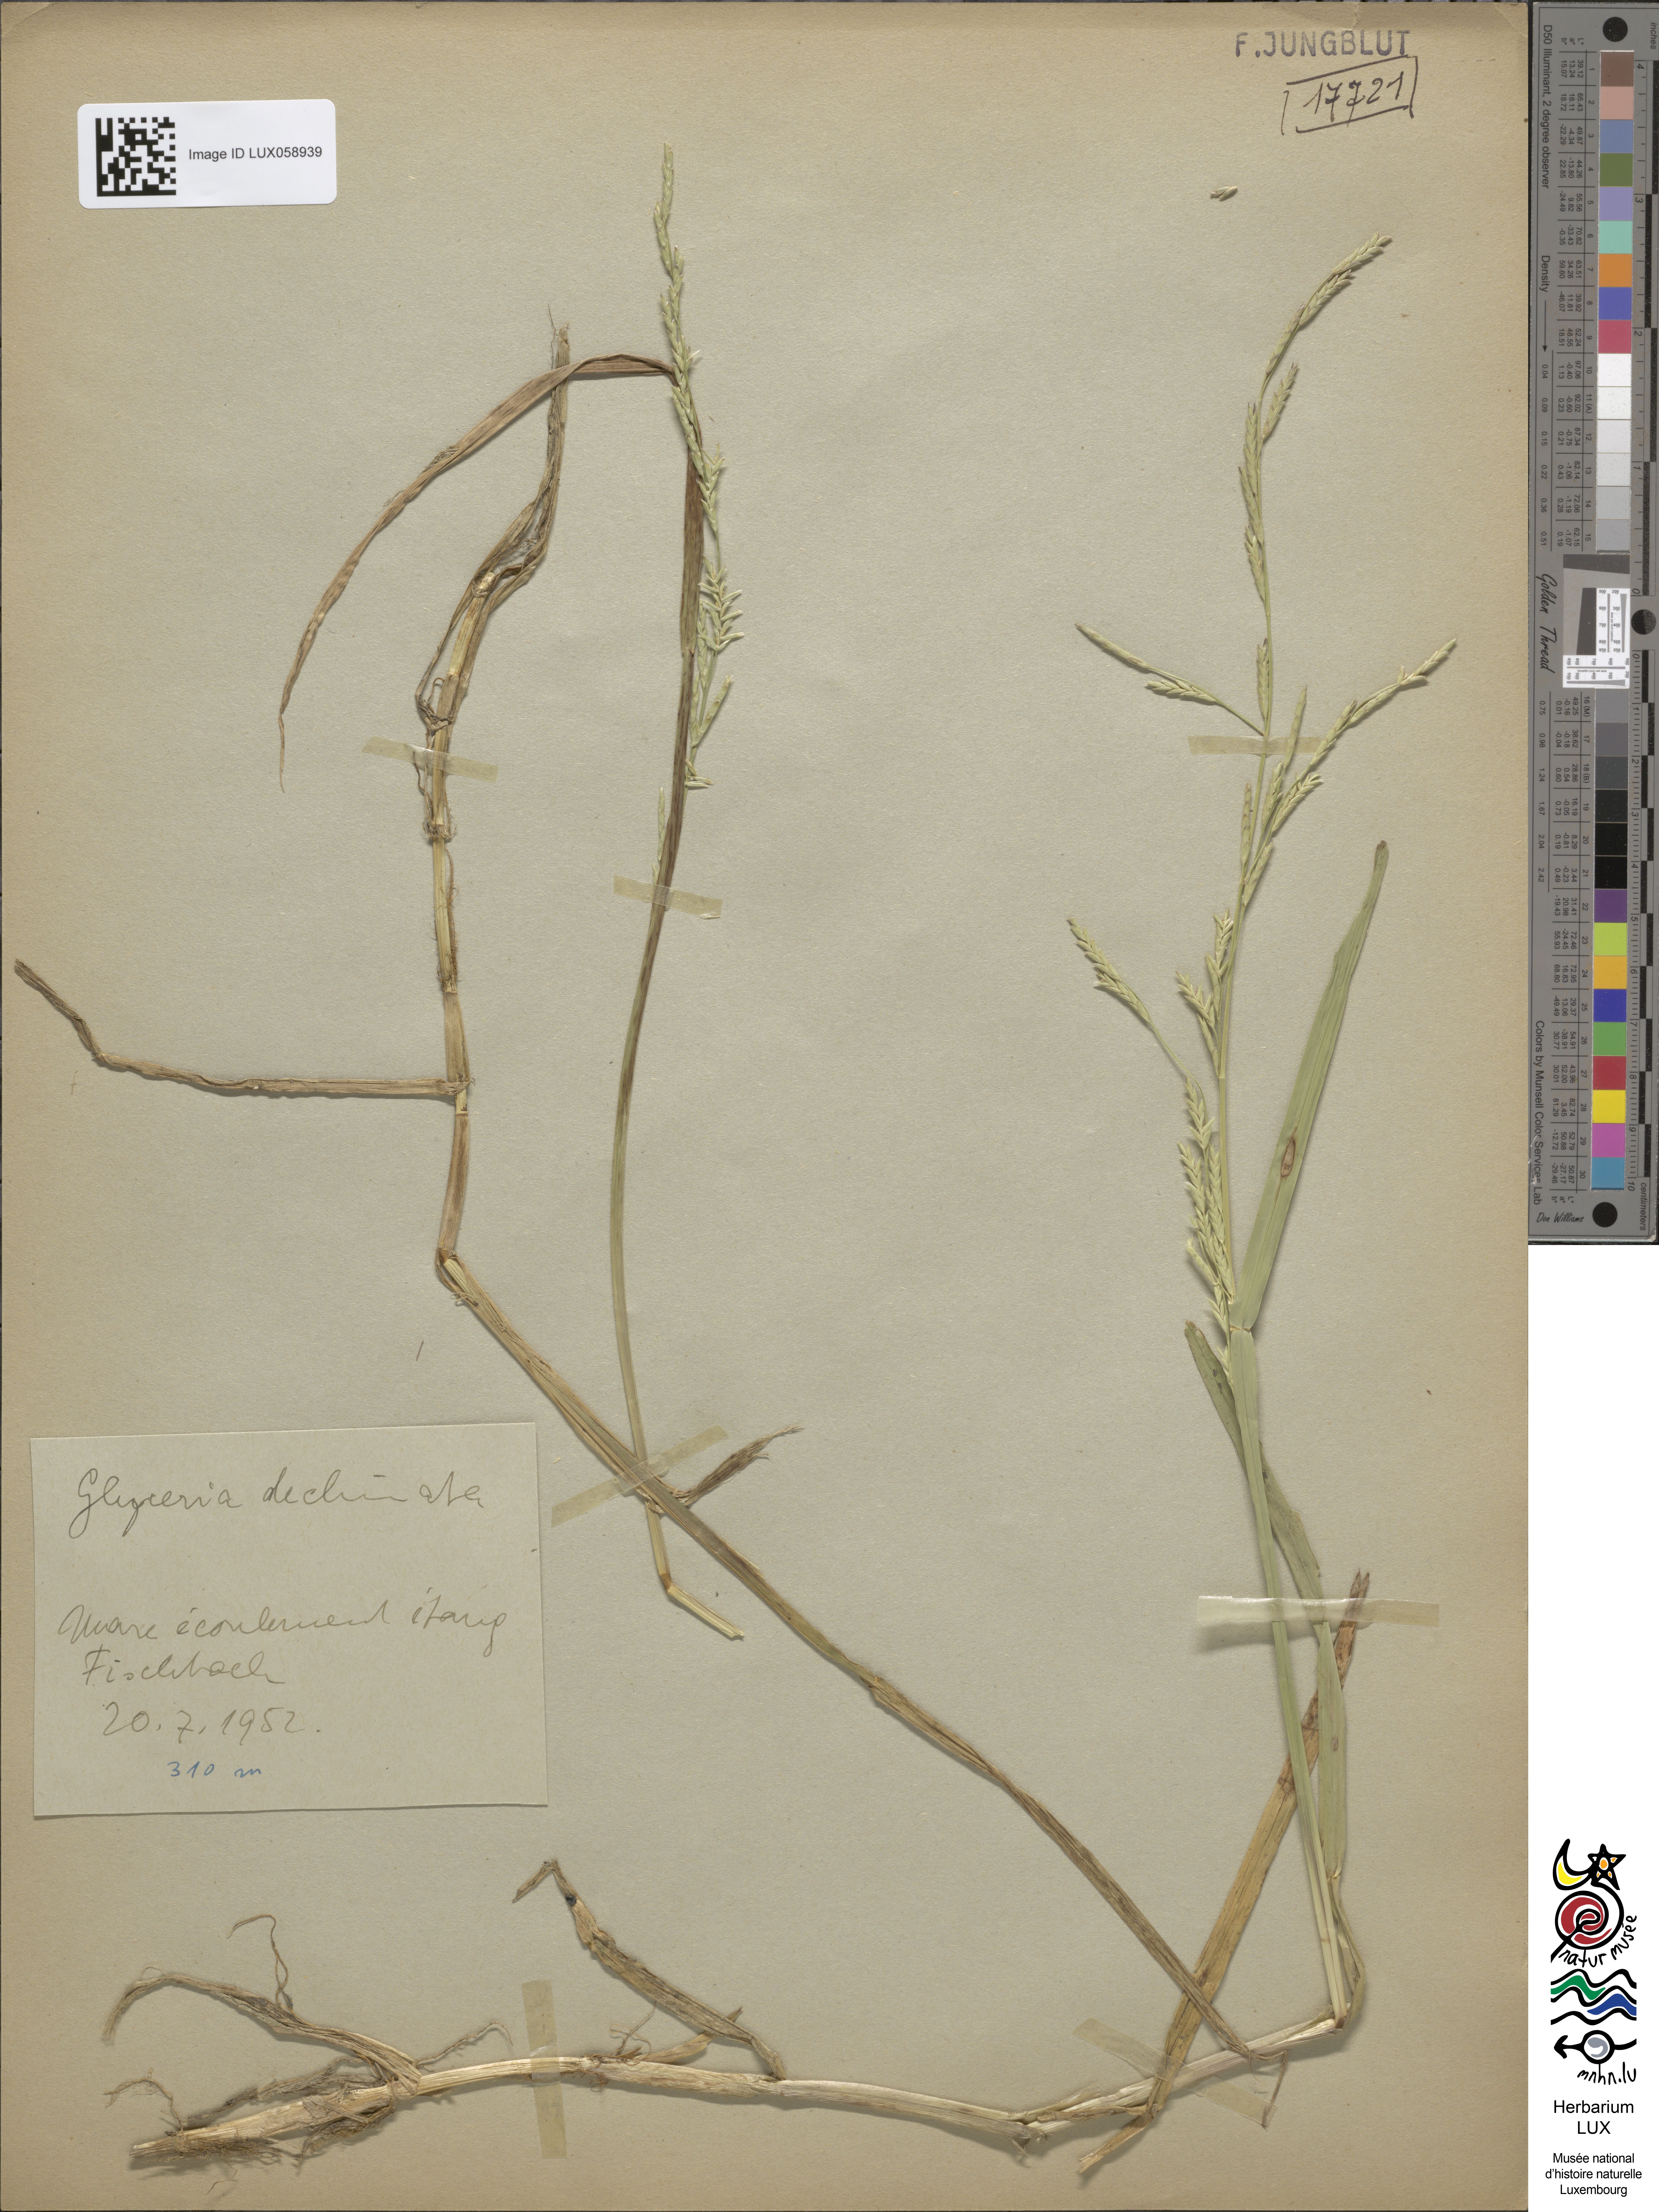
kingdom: Plantae
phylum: Tracheophyta
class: Liliopsida
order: Poales
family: Poaceae
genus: Glyceria
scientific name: Glyceria declinata
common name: Small sweet-grass
